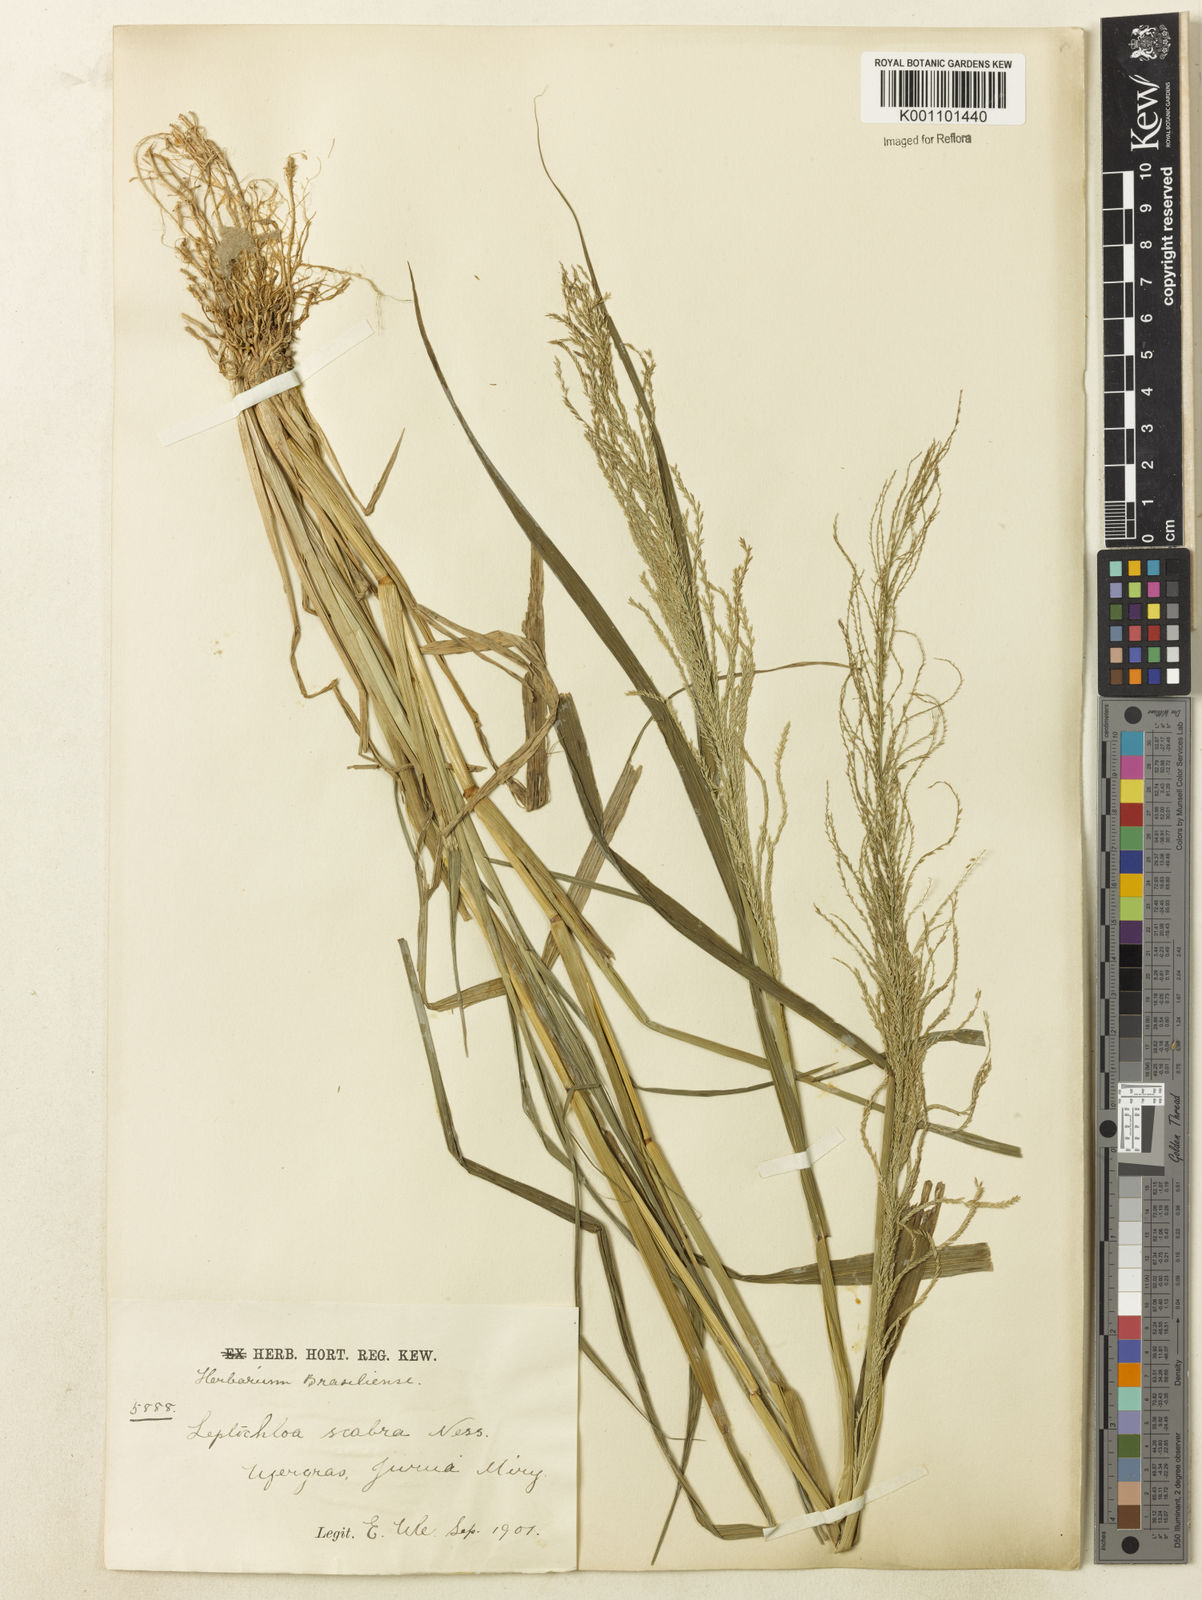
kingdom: Plantae
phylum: Tracheophyta
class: Liliopsida
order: Poales
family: Poaceae
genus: Leptochloa
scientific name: Leptochloa
